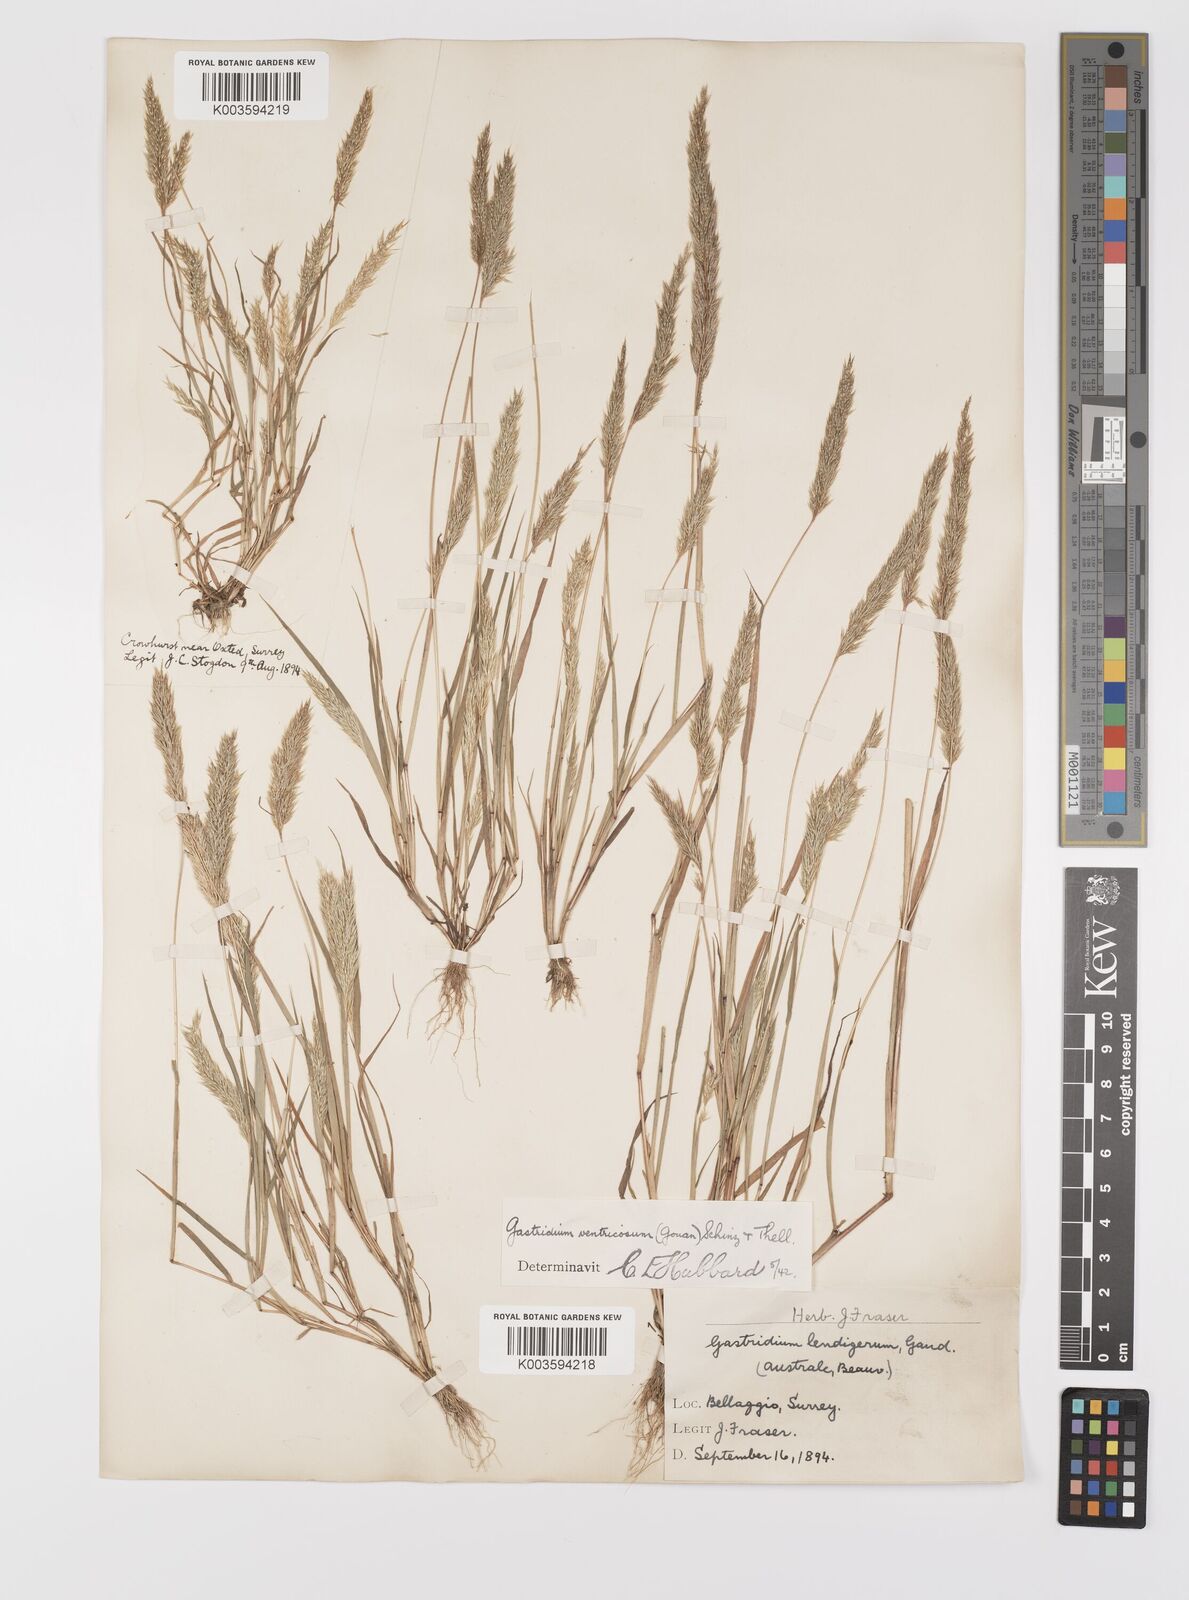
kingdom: Plantae
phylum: Tracheophyta
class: Liliopsida
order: Poales
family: Poaceae
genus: Gastridium
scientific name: Gastridium ventricosum
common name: Nit-grass
